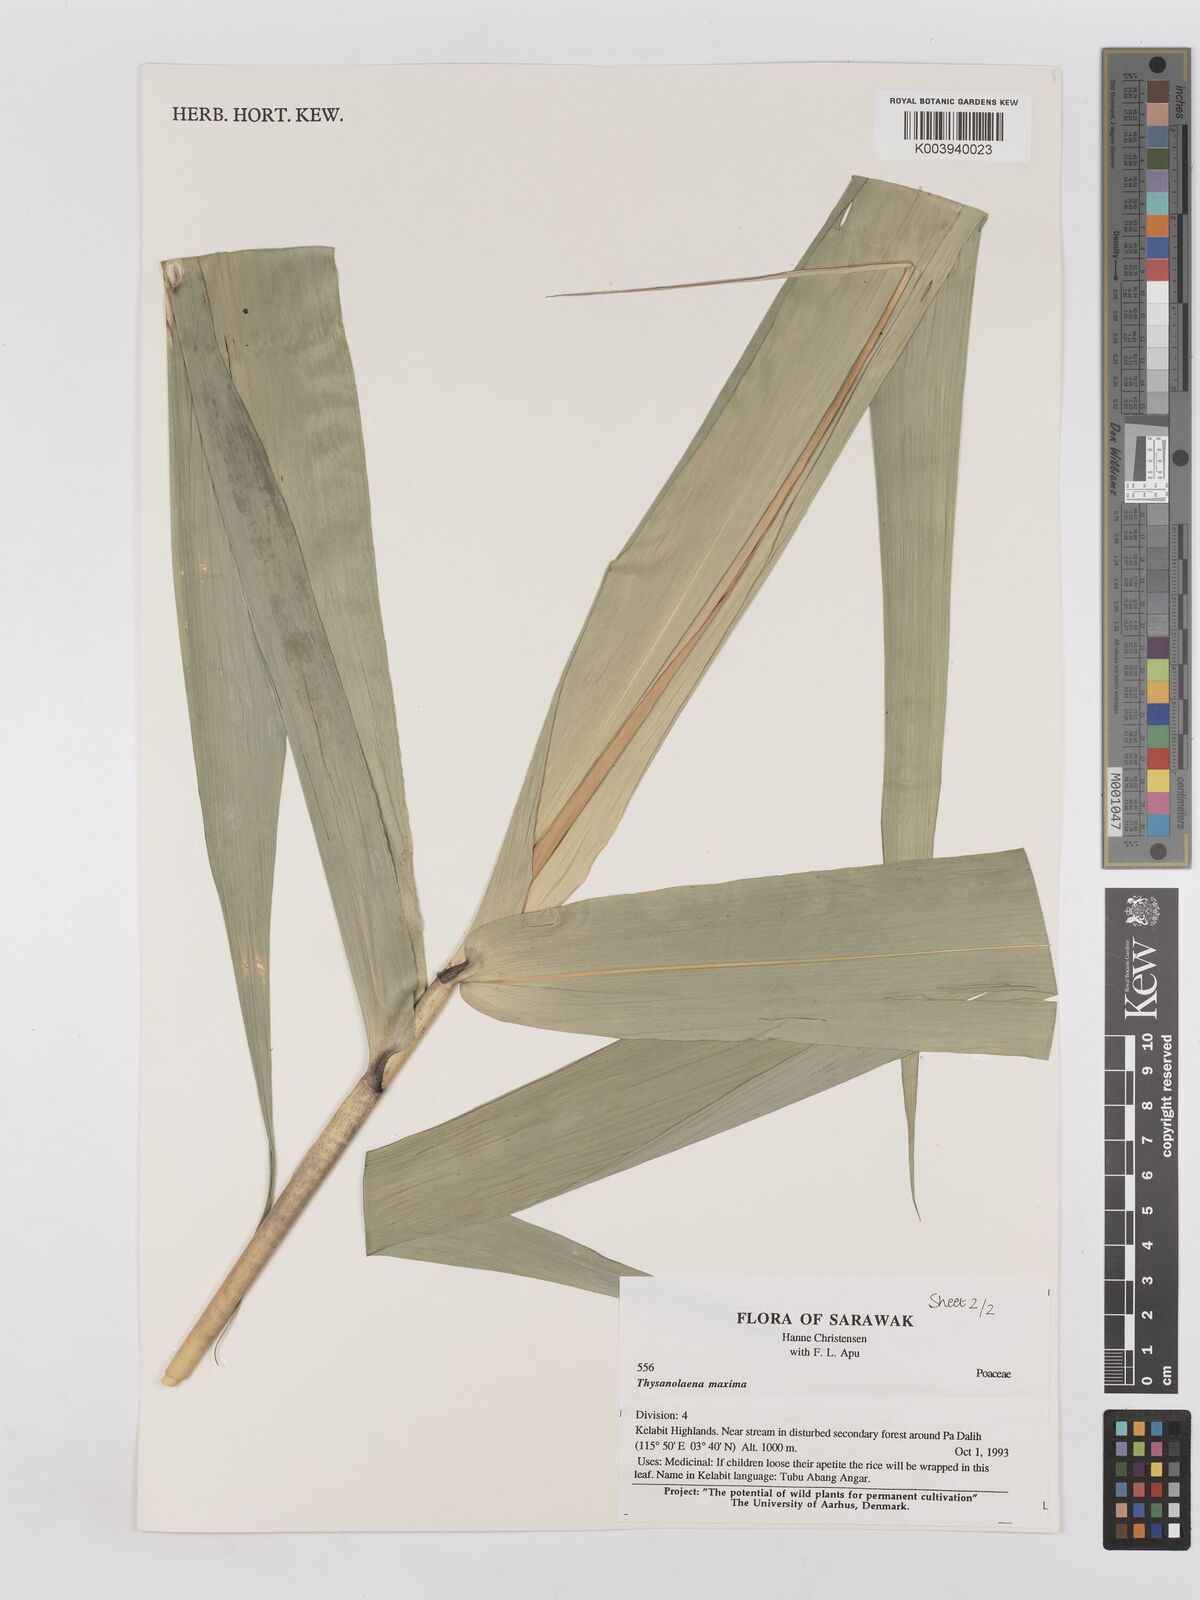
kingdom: Plantae
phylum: Tracheophyta
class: Liliopsida
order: Poales
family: Poaceae
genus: Thysanolaena
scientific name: Thysanolaena latifolia
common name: Tiger grass
